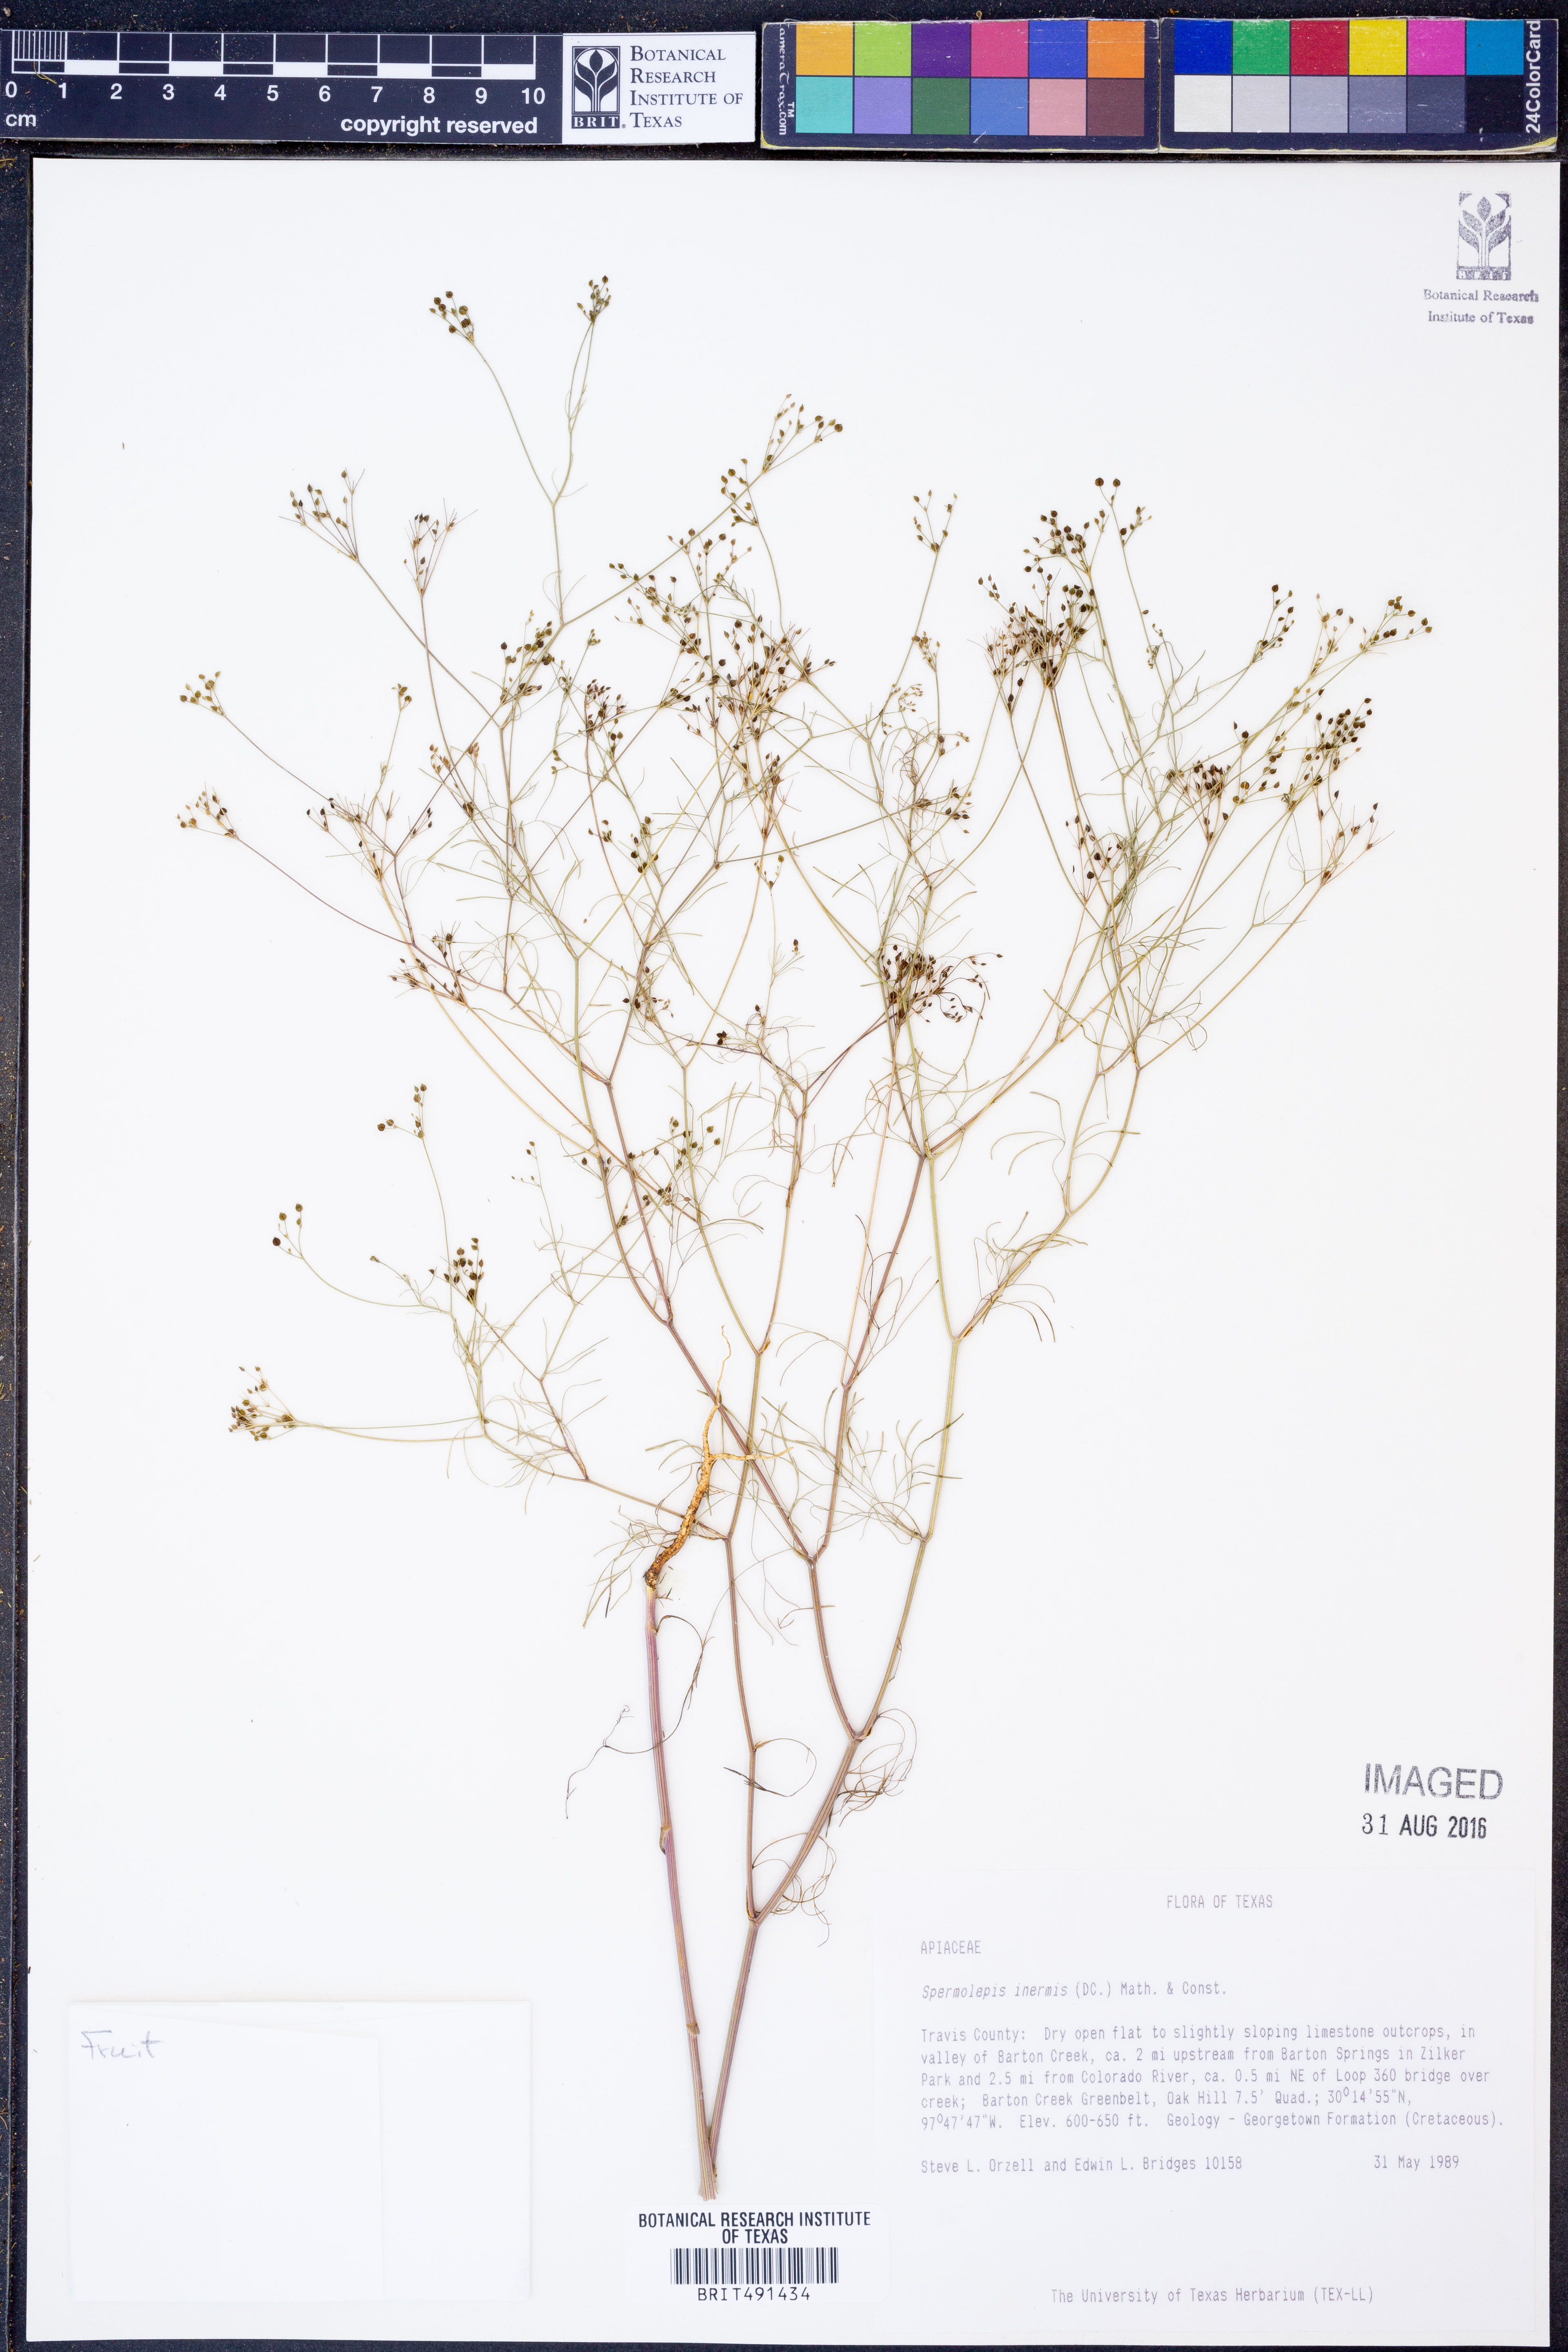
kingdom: Plantae
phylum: Tracheophyta
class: Magnoliopsida
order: Apiales
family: Apiaceae
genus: Spermolepis
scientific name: Spermolepis inermis
